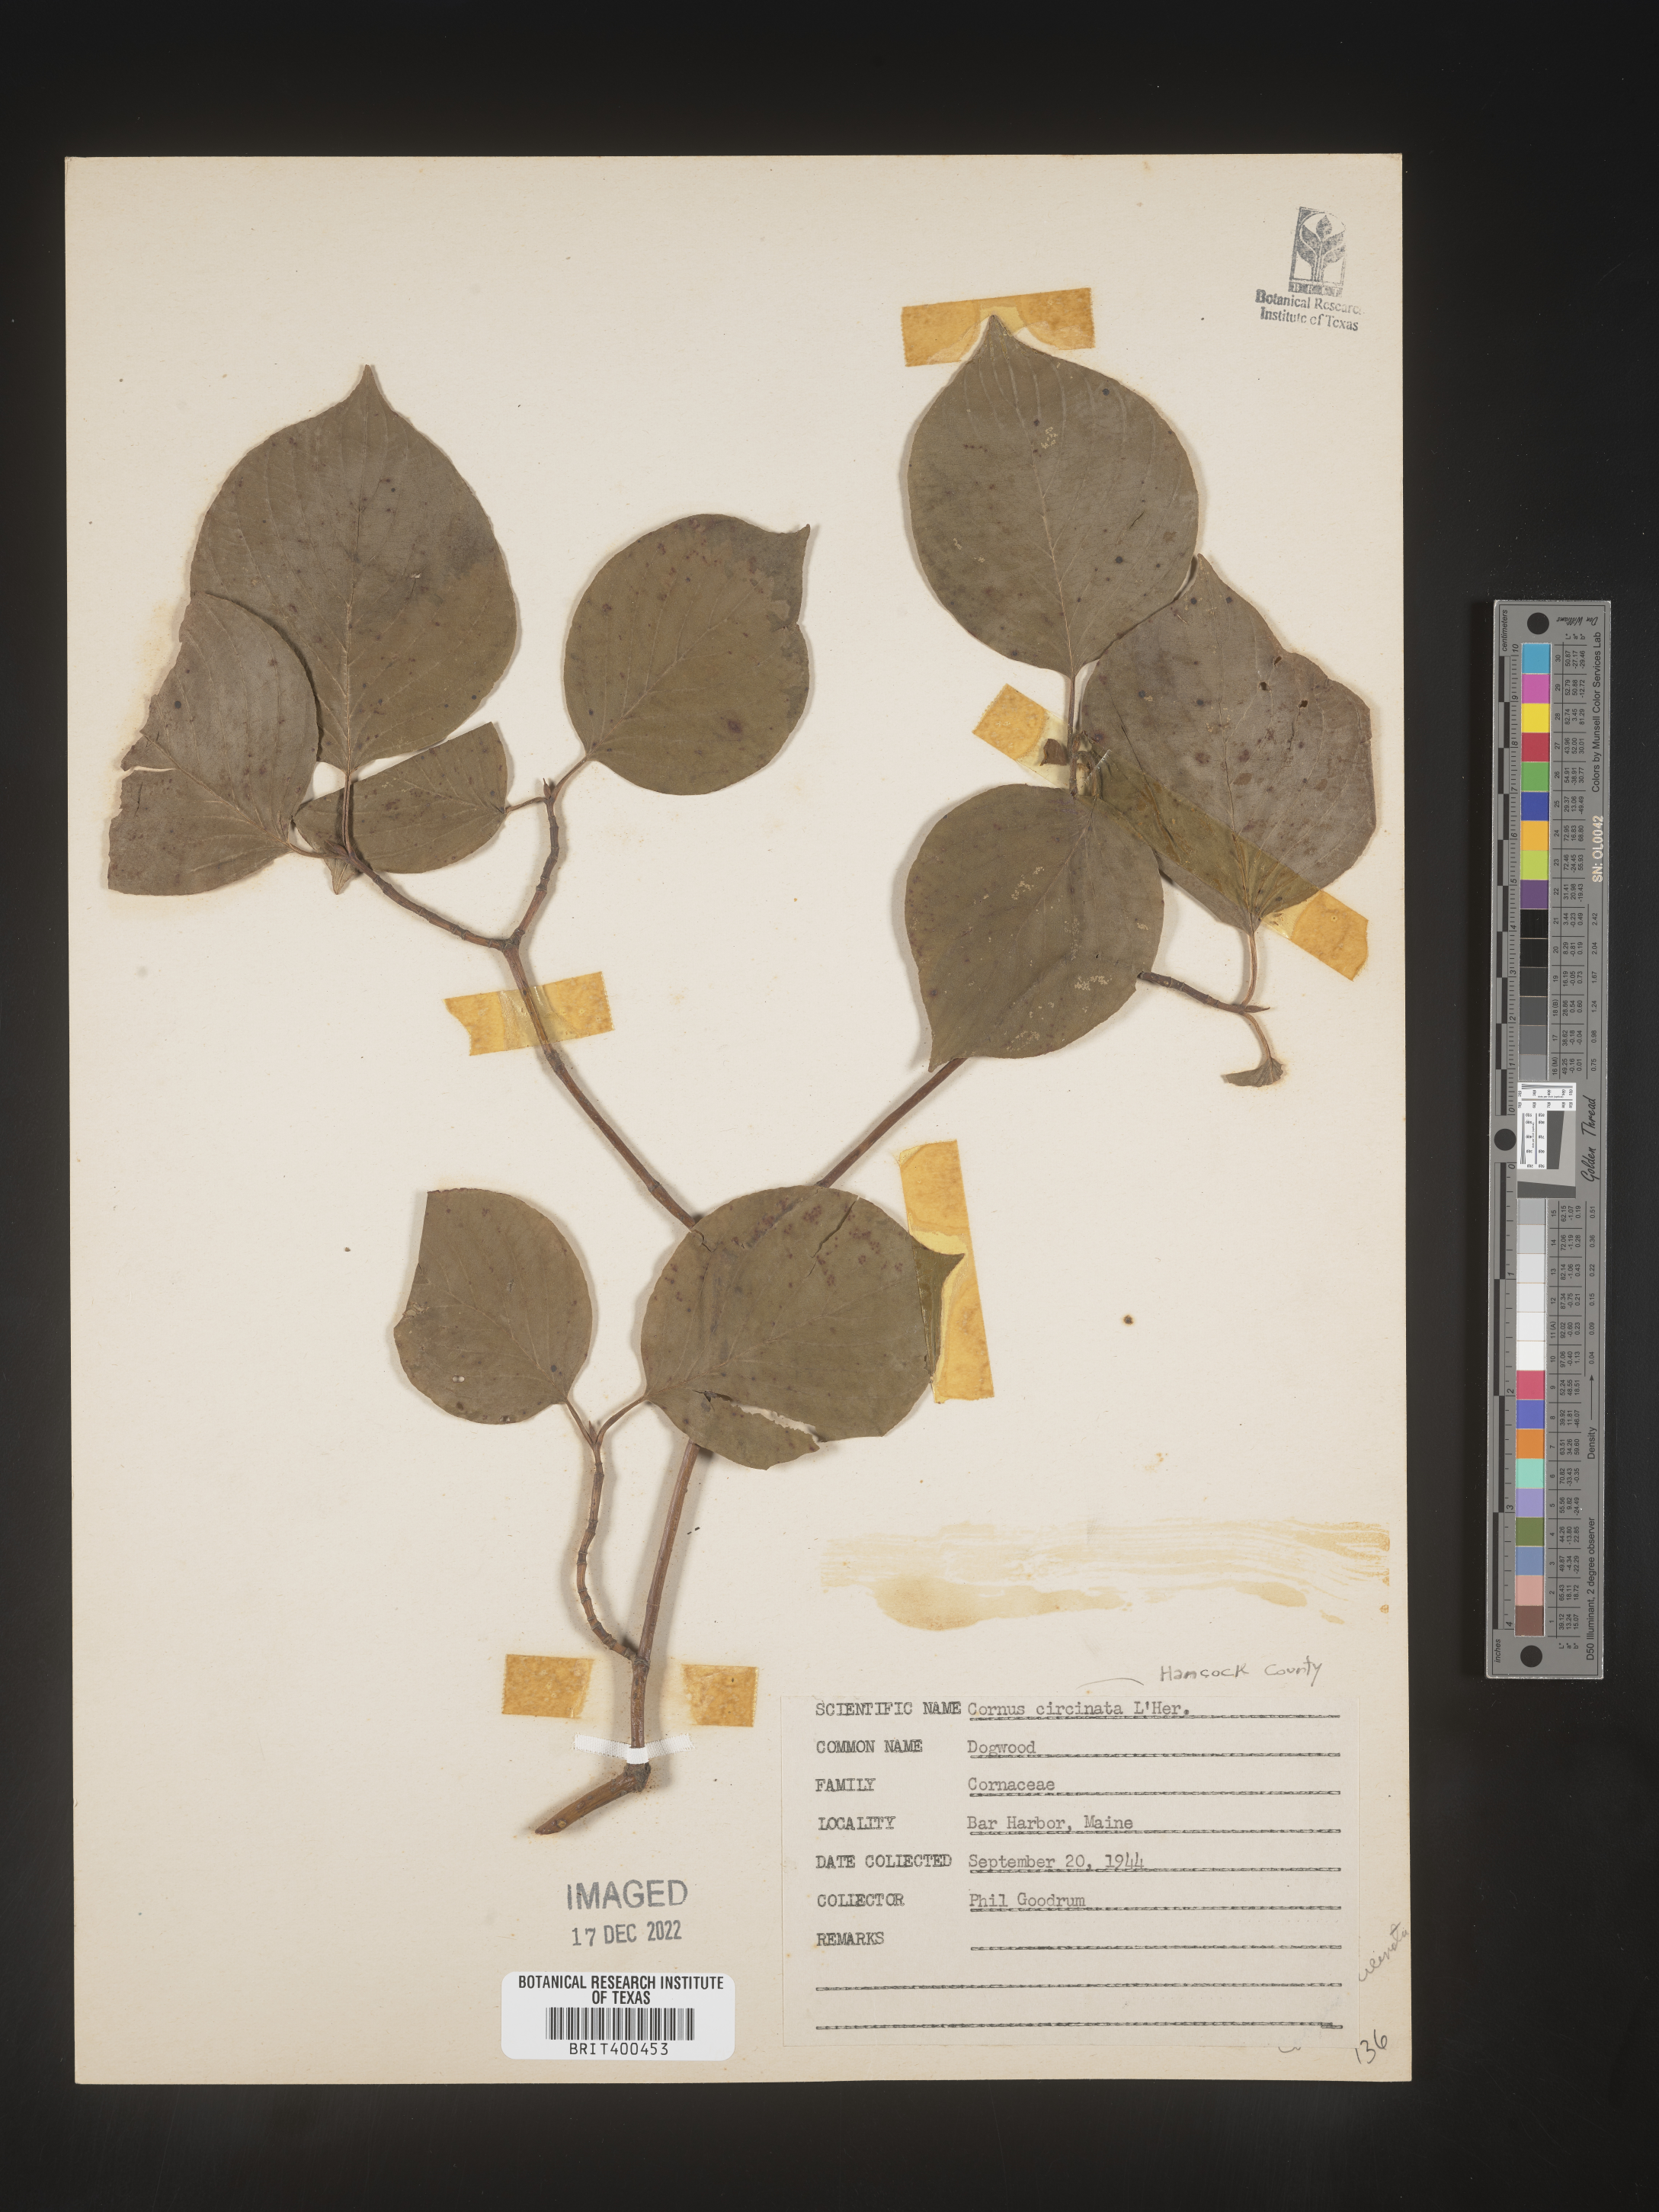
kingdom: Plantae
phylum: Tracheophyta
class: Magnoliopsida
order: Cornales
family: Cornaceae
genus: Cornus
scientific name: Cornus
